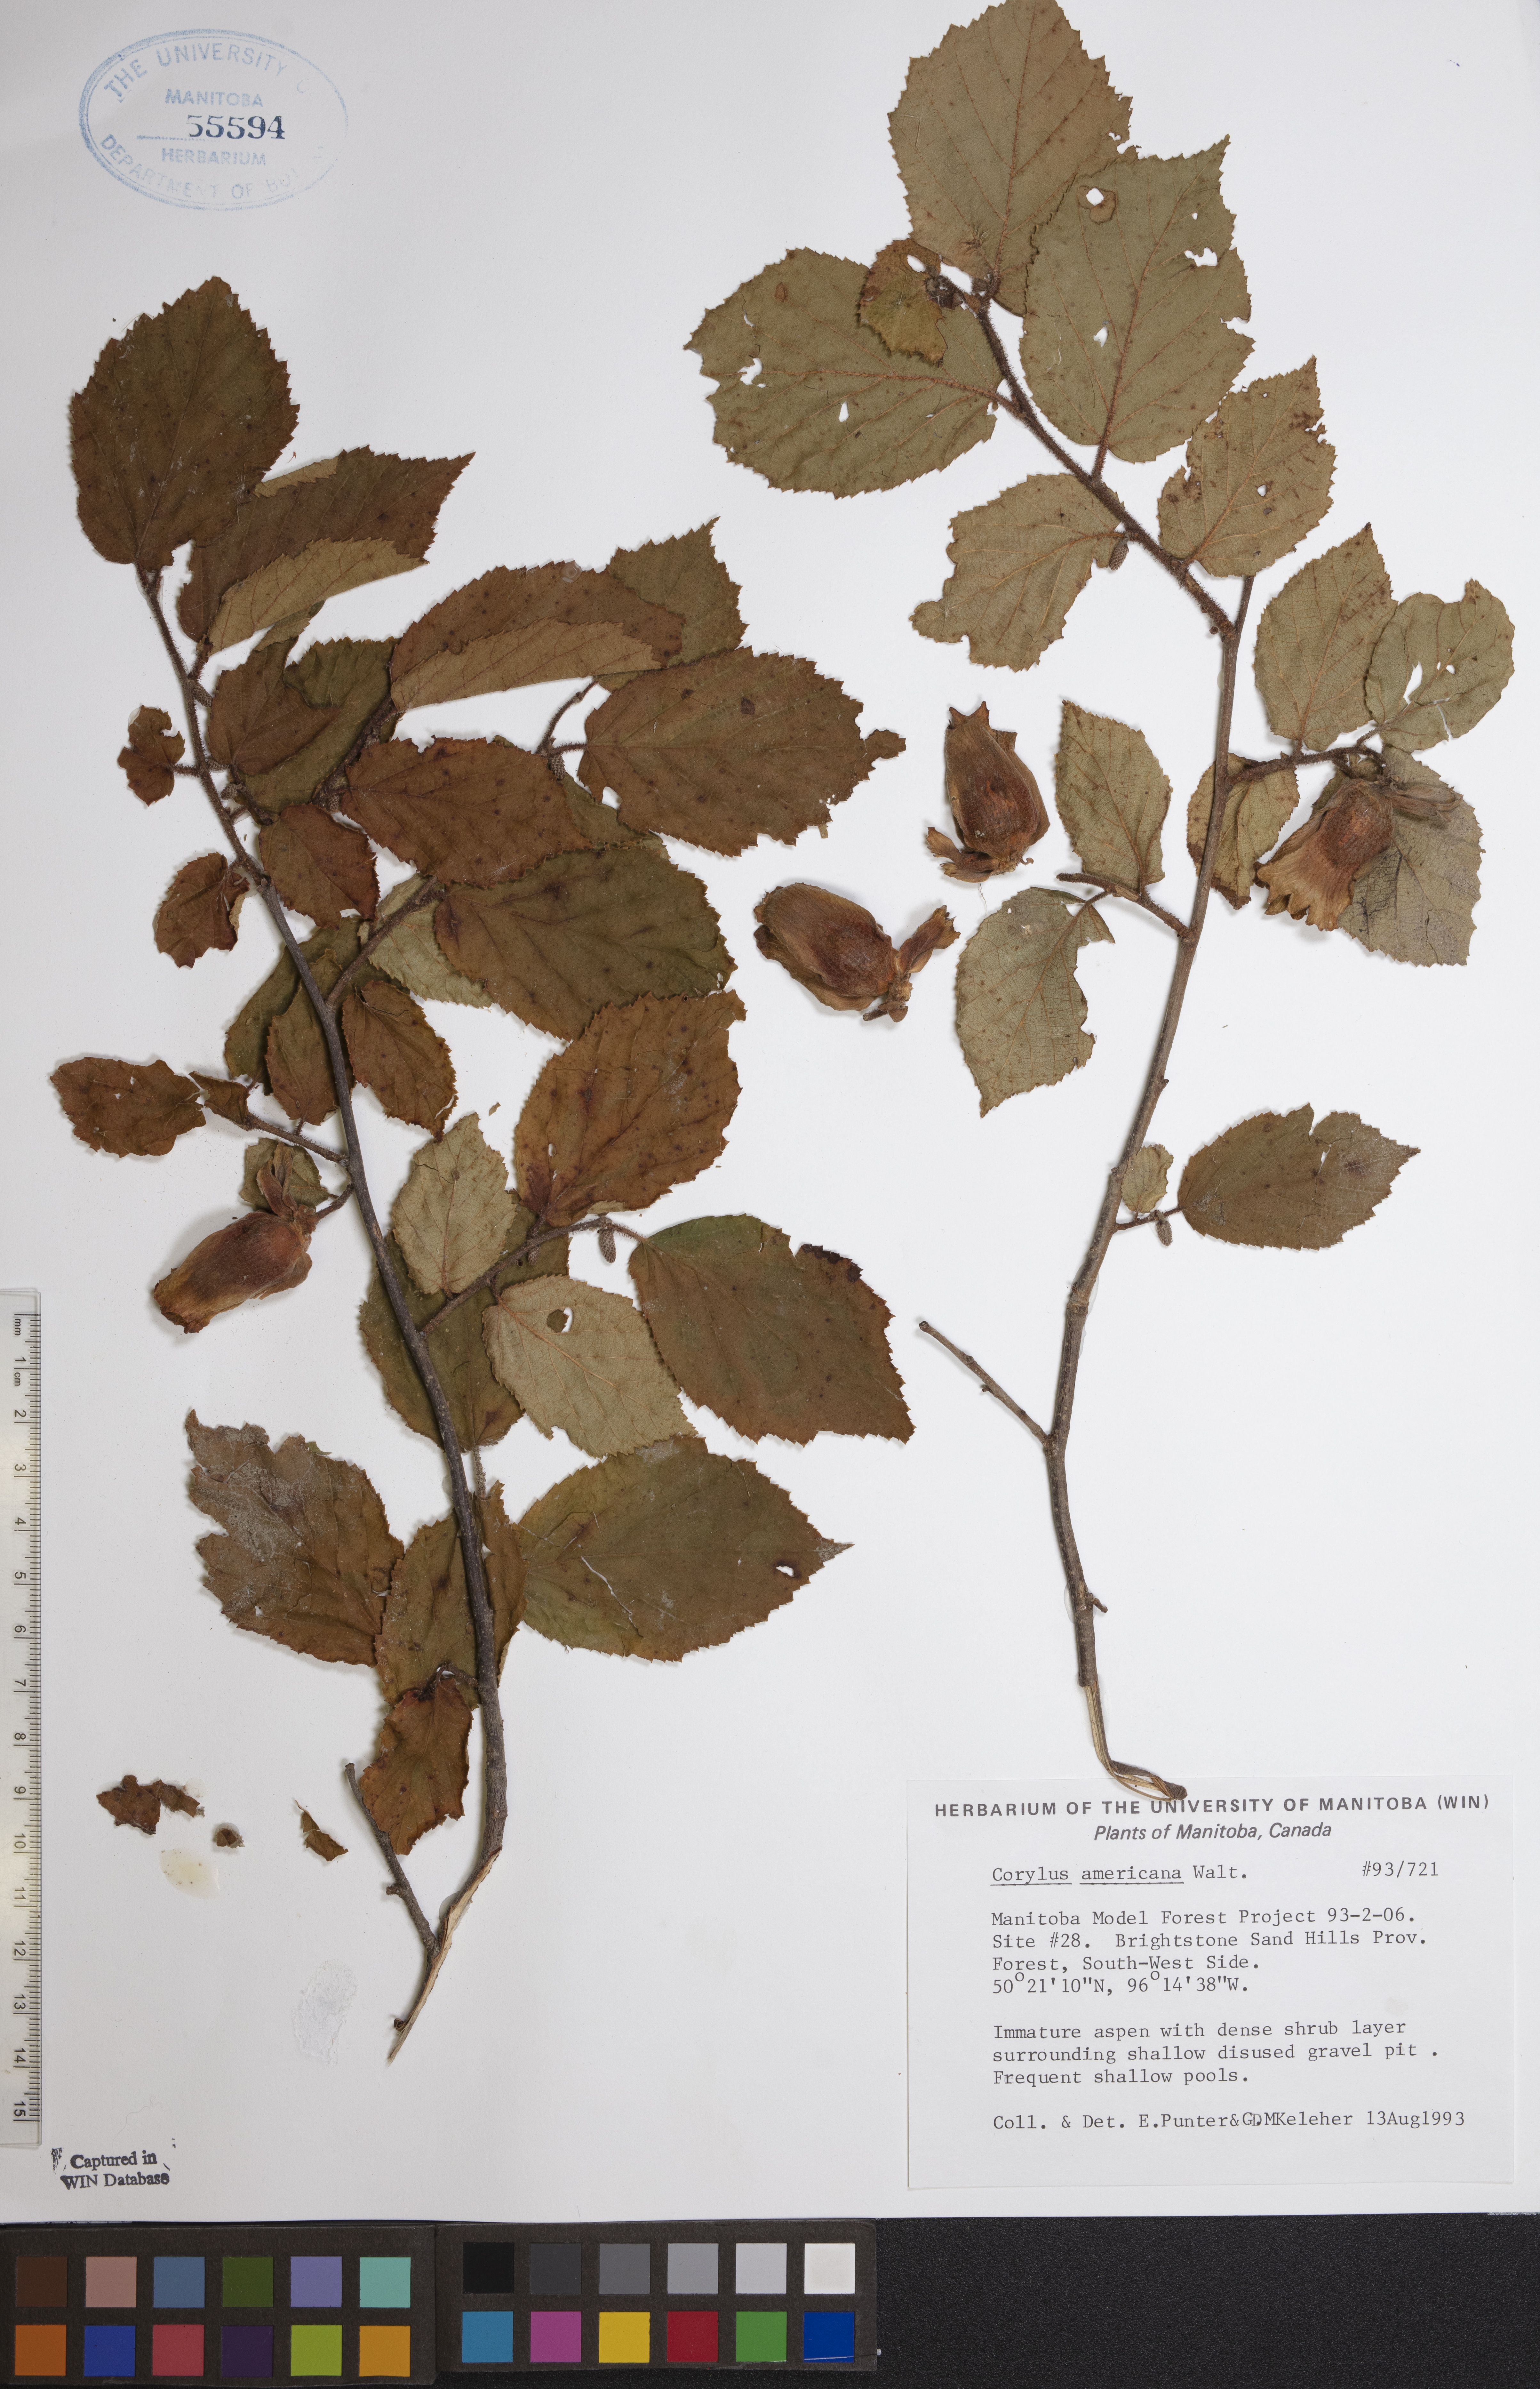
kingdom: Plantae
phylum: Tracheophyta
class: Magnoliopsida
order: Fagales
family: Betulaceae
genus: Corylus
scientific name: Corylus americana
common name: American hazel
